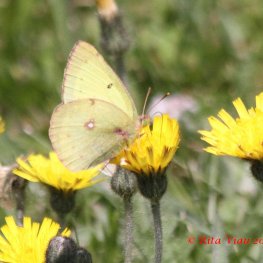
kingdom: Animalia
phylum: Arthropoda
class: Insecta
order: Lepidoptera
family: Pieridae
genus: Colias
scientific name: Colias philodice
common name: Clouded Sulphur
